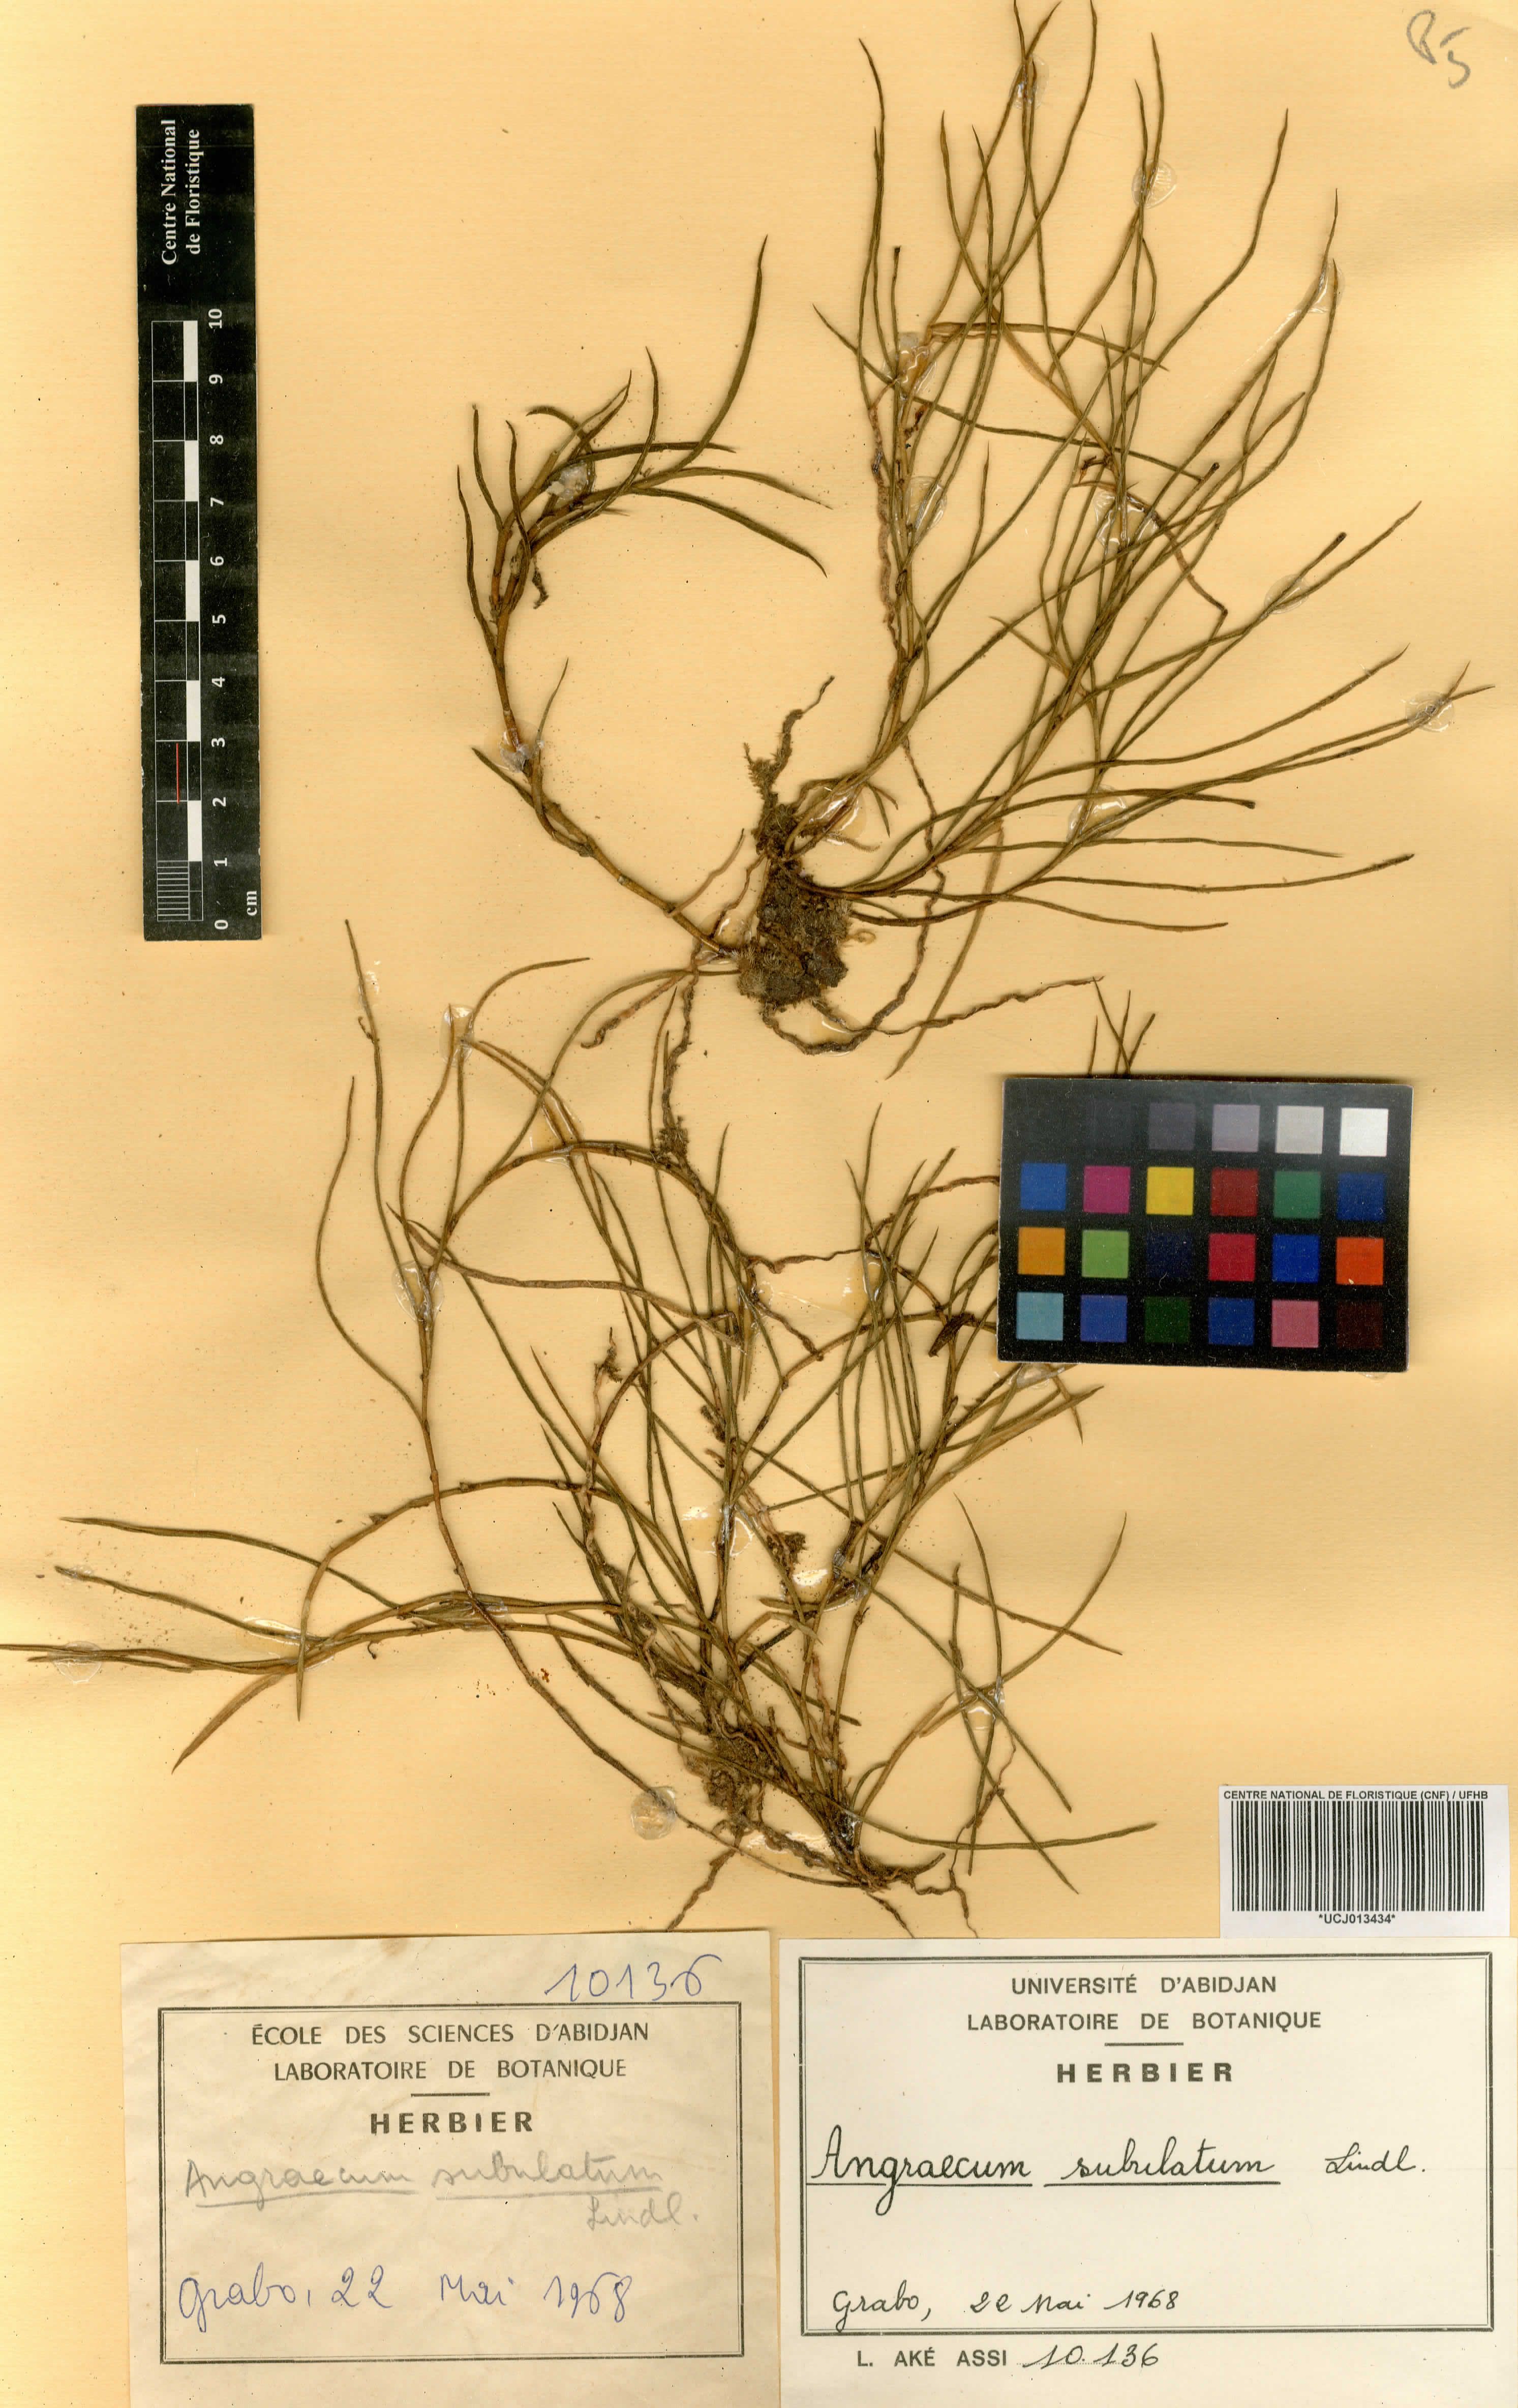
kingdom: Plantae
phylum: Tracheophyta
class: Liliopsida
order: Asparagales
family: Orchidaceae
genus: Afropectinariella
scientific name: Afropectinariella subulata
